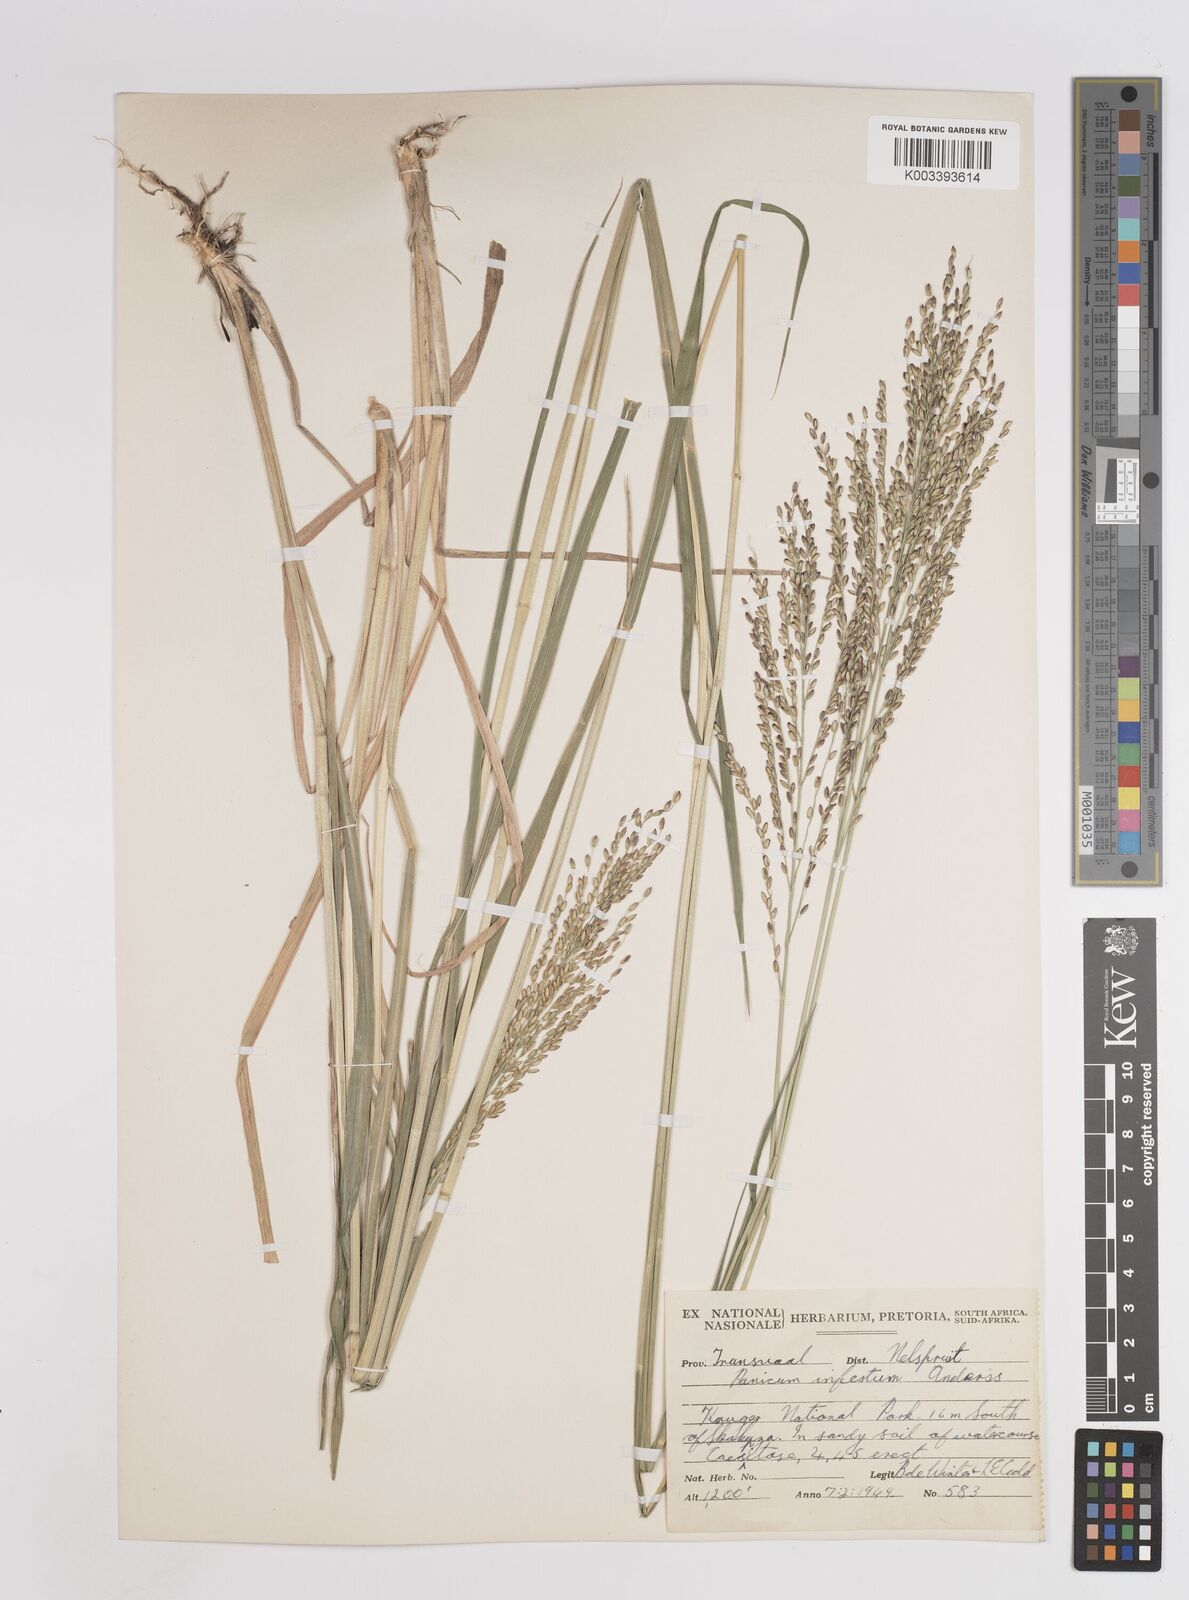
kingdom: Plantae
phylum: Tracheophyta
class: Liliopsida
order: Poales
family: Poaceae
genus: Megathyrsus
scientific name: Megathyrsus infestus
